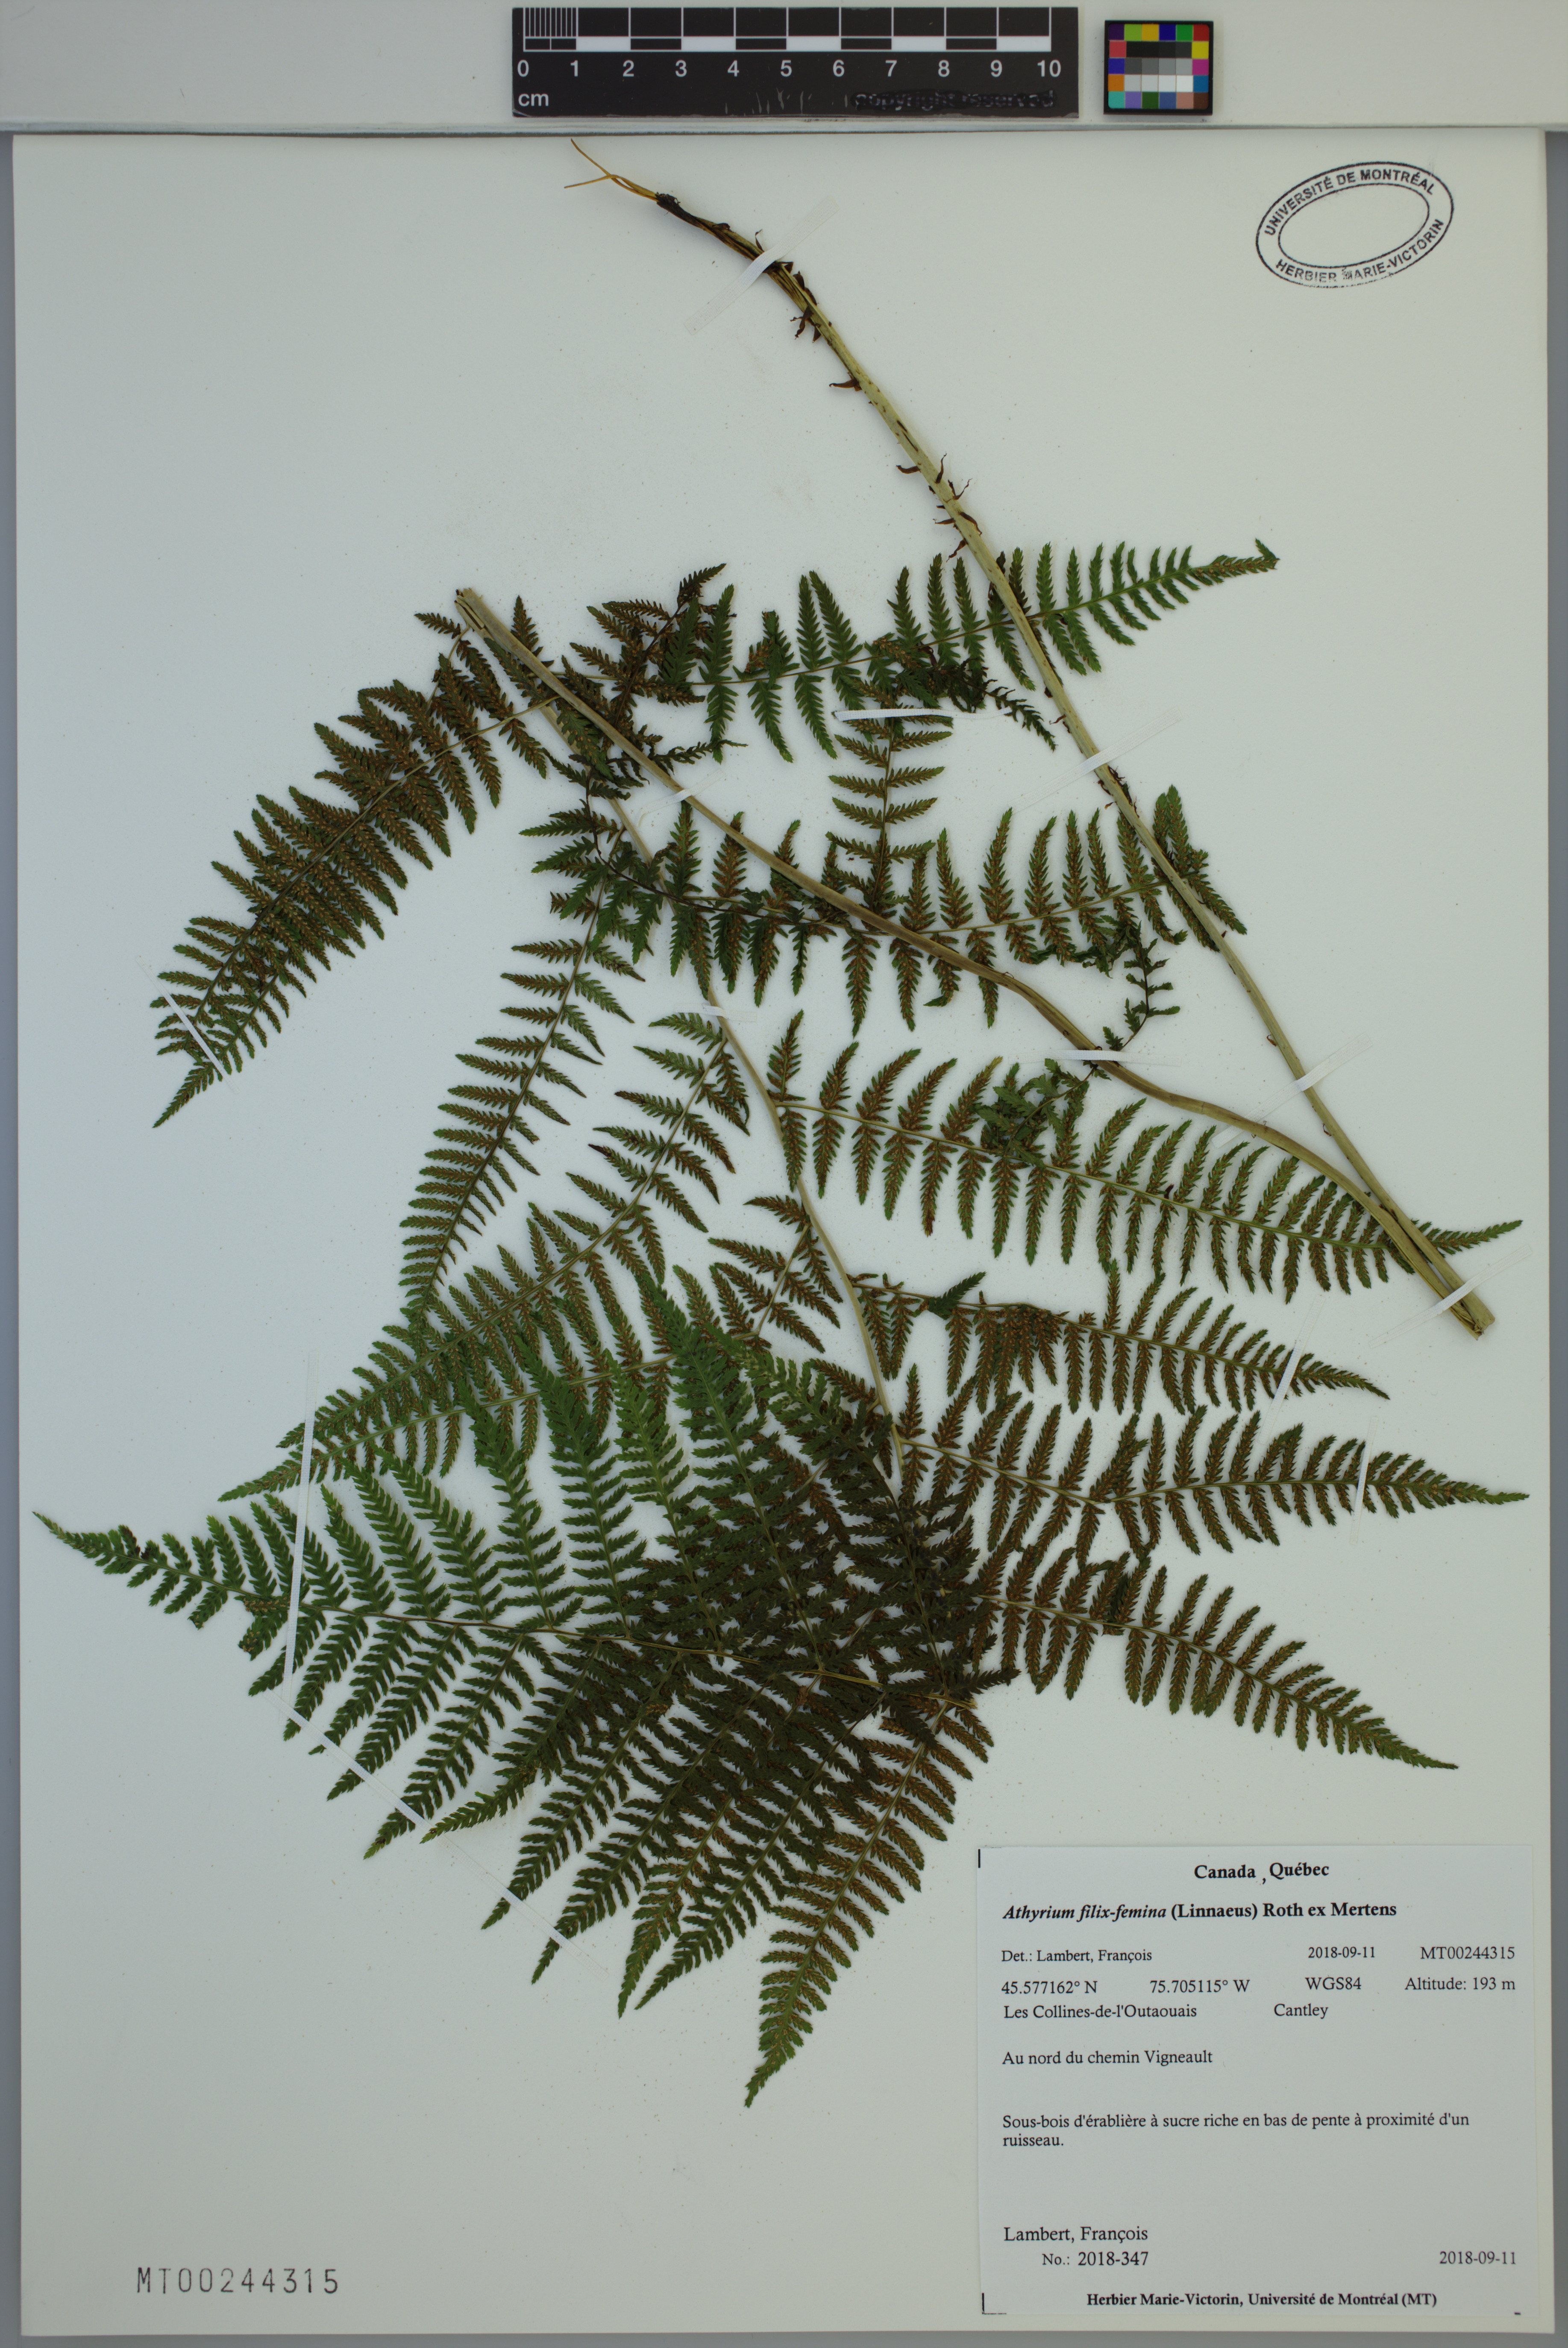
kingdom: Plantae
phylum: Tracheophyta
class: Polypodiopsida
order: Polypodiales
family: Athyriaceae
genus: Athyrium
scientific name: Athyrium filix-femina
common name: Lady fern
